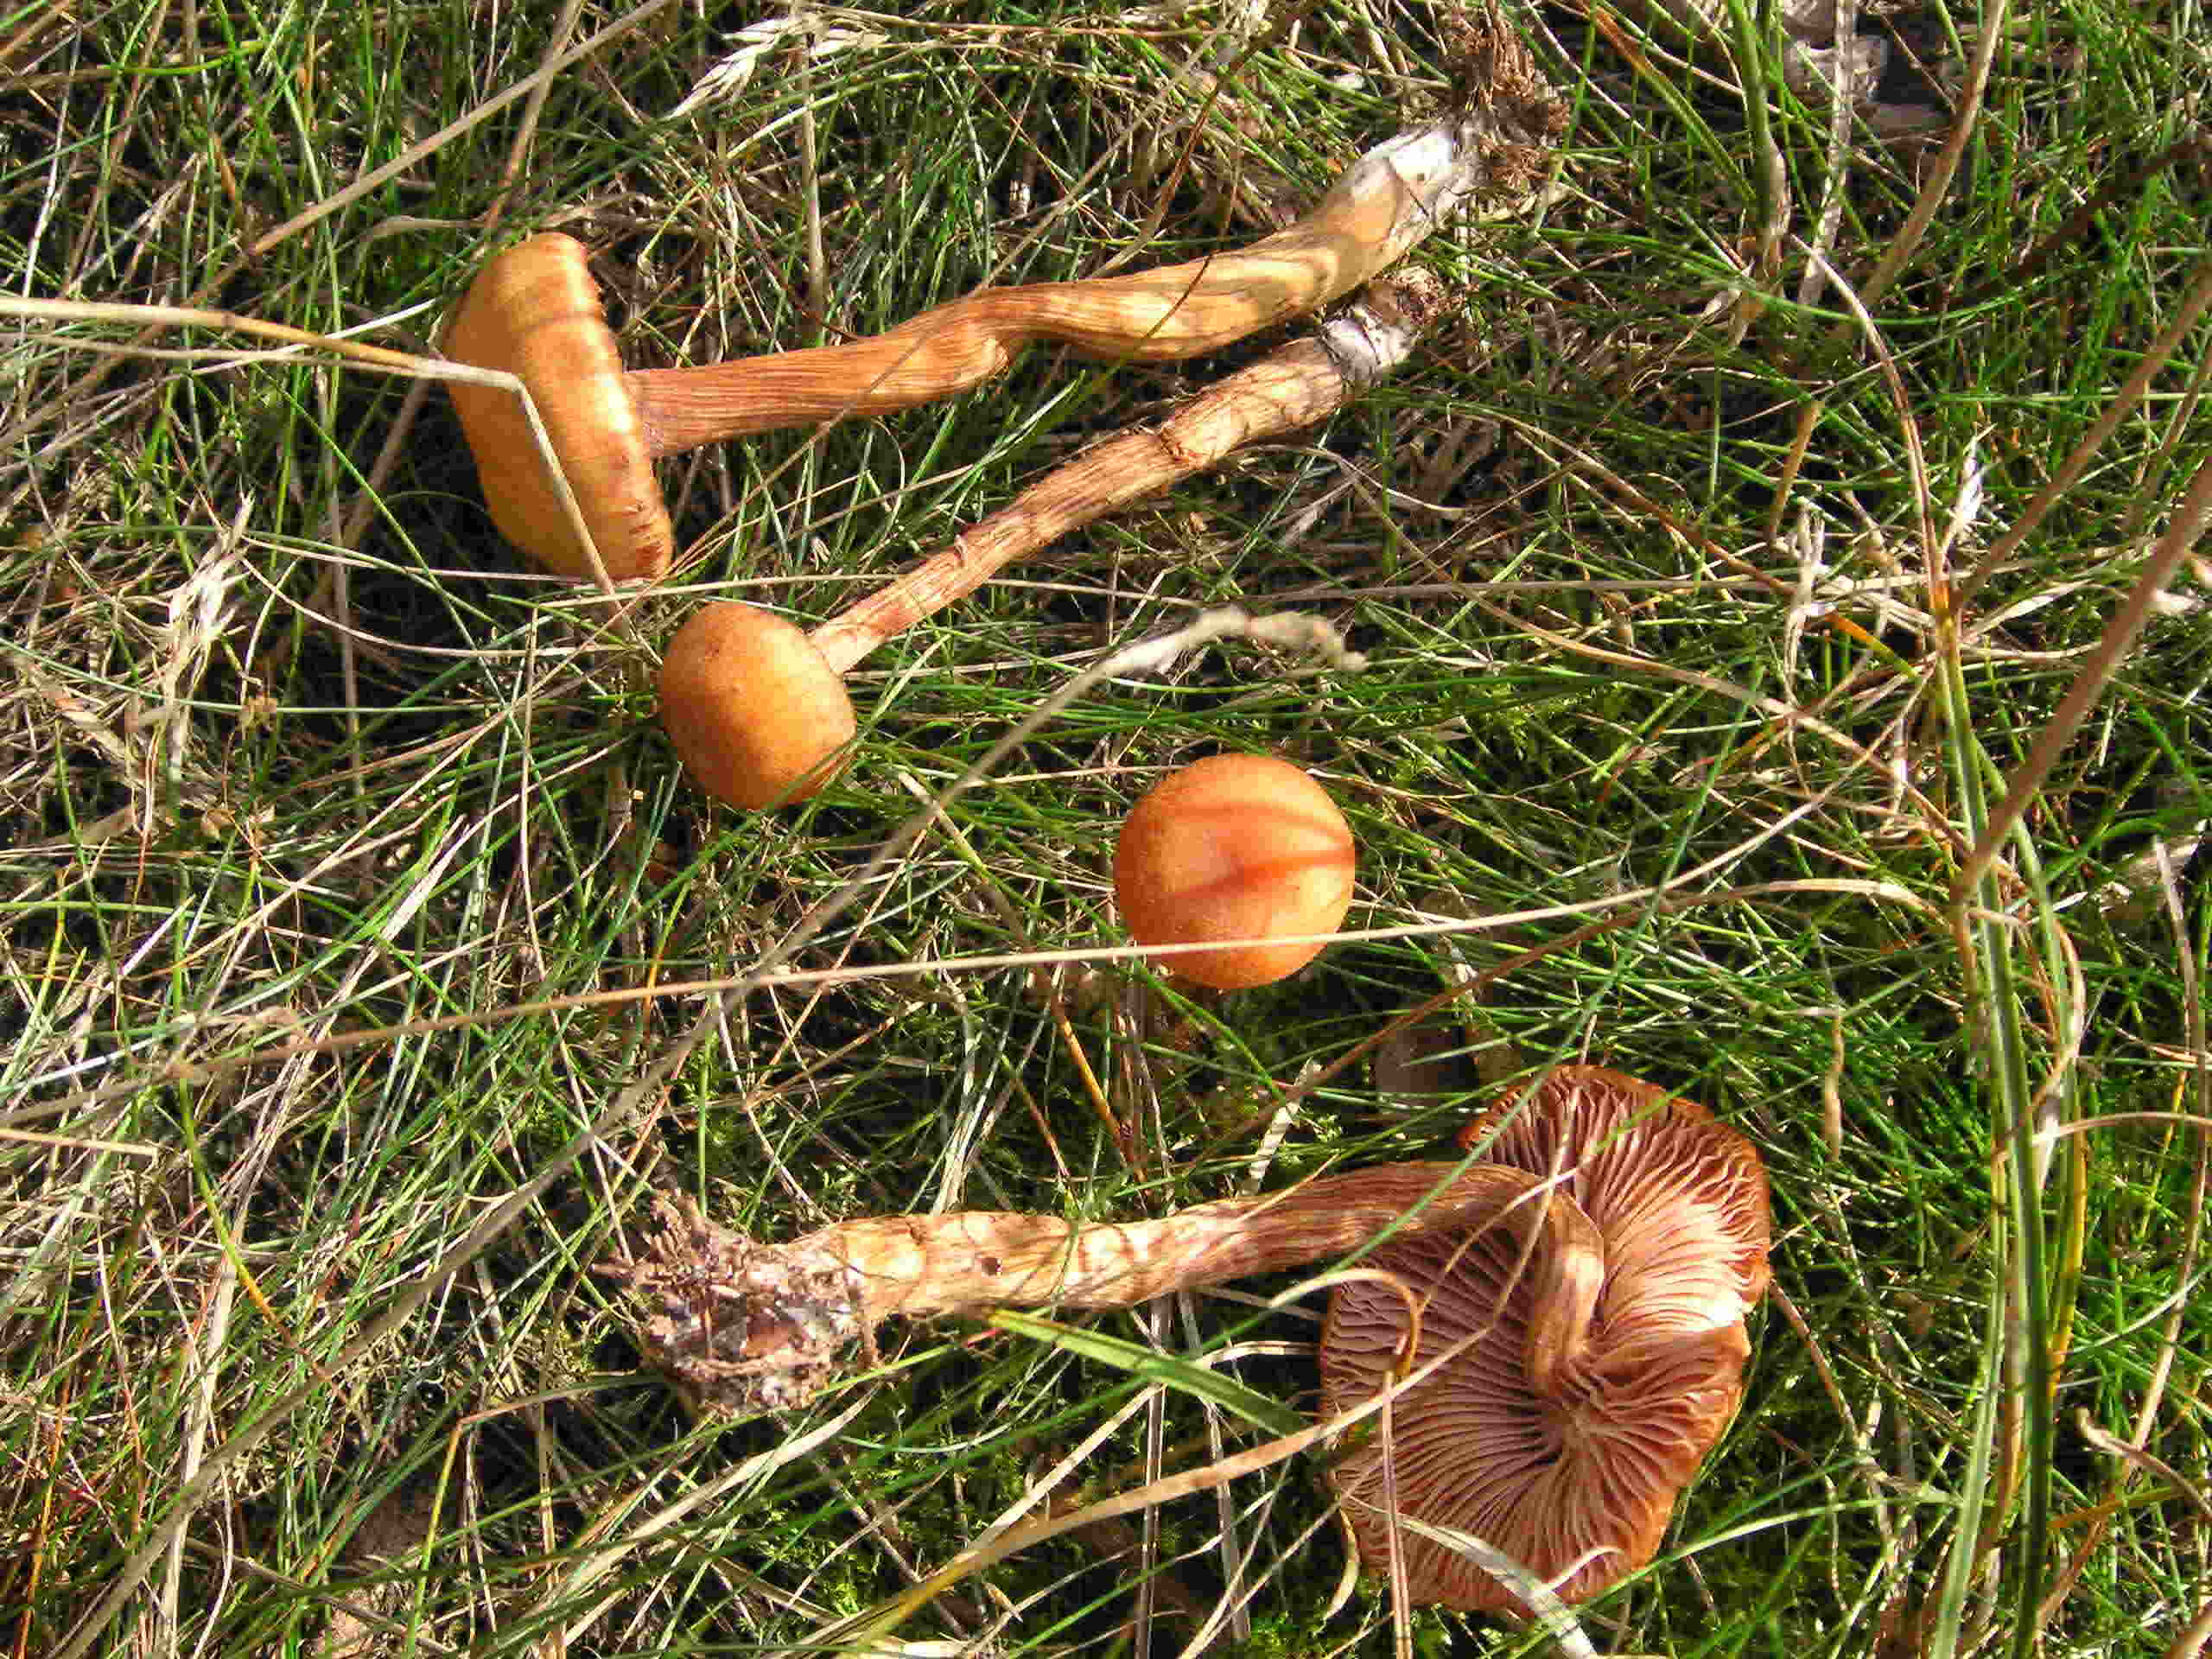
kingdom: Fungi
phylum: Basidiomycota
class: Agaricomycetes
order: Agaricales
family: Hydnangiaceae
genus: Laccaria
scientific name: Laccaria proxima
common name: stor ametysthat
